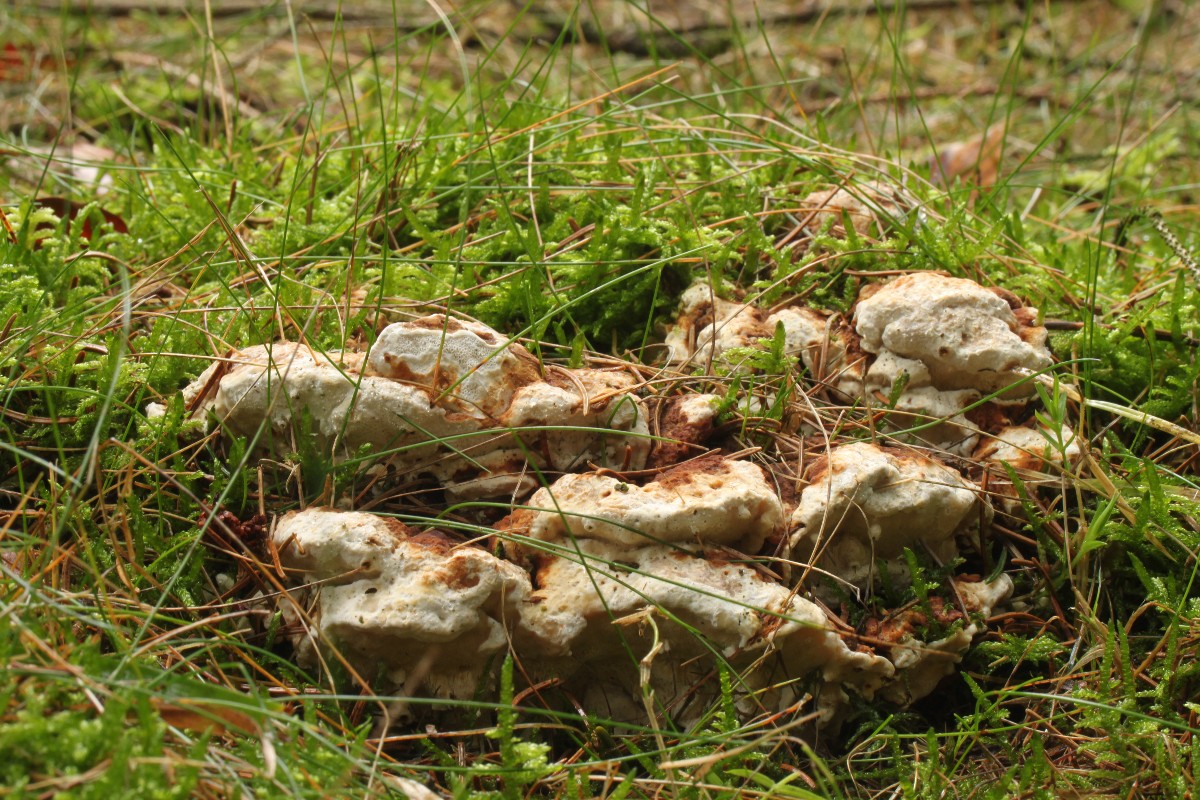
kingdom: Fungi
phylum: Basidiomycota
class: Agaricomycetes
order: Russulales
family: Bondarzewiaceae
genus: Heterobasidion
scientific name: Heterobasidion annosum
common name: almindelig rodfordærver
